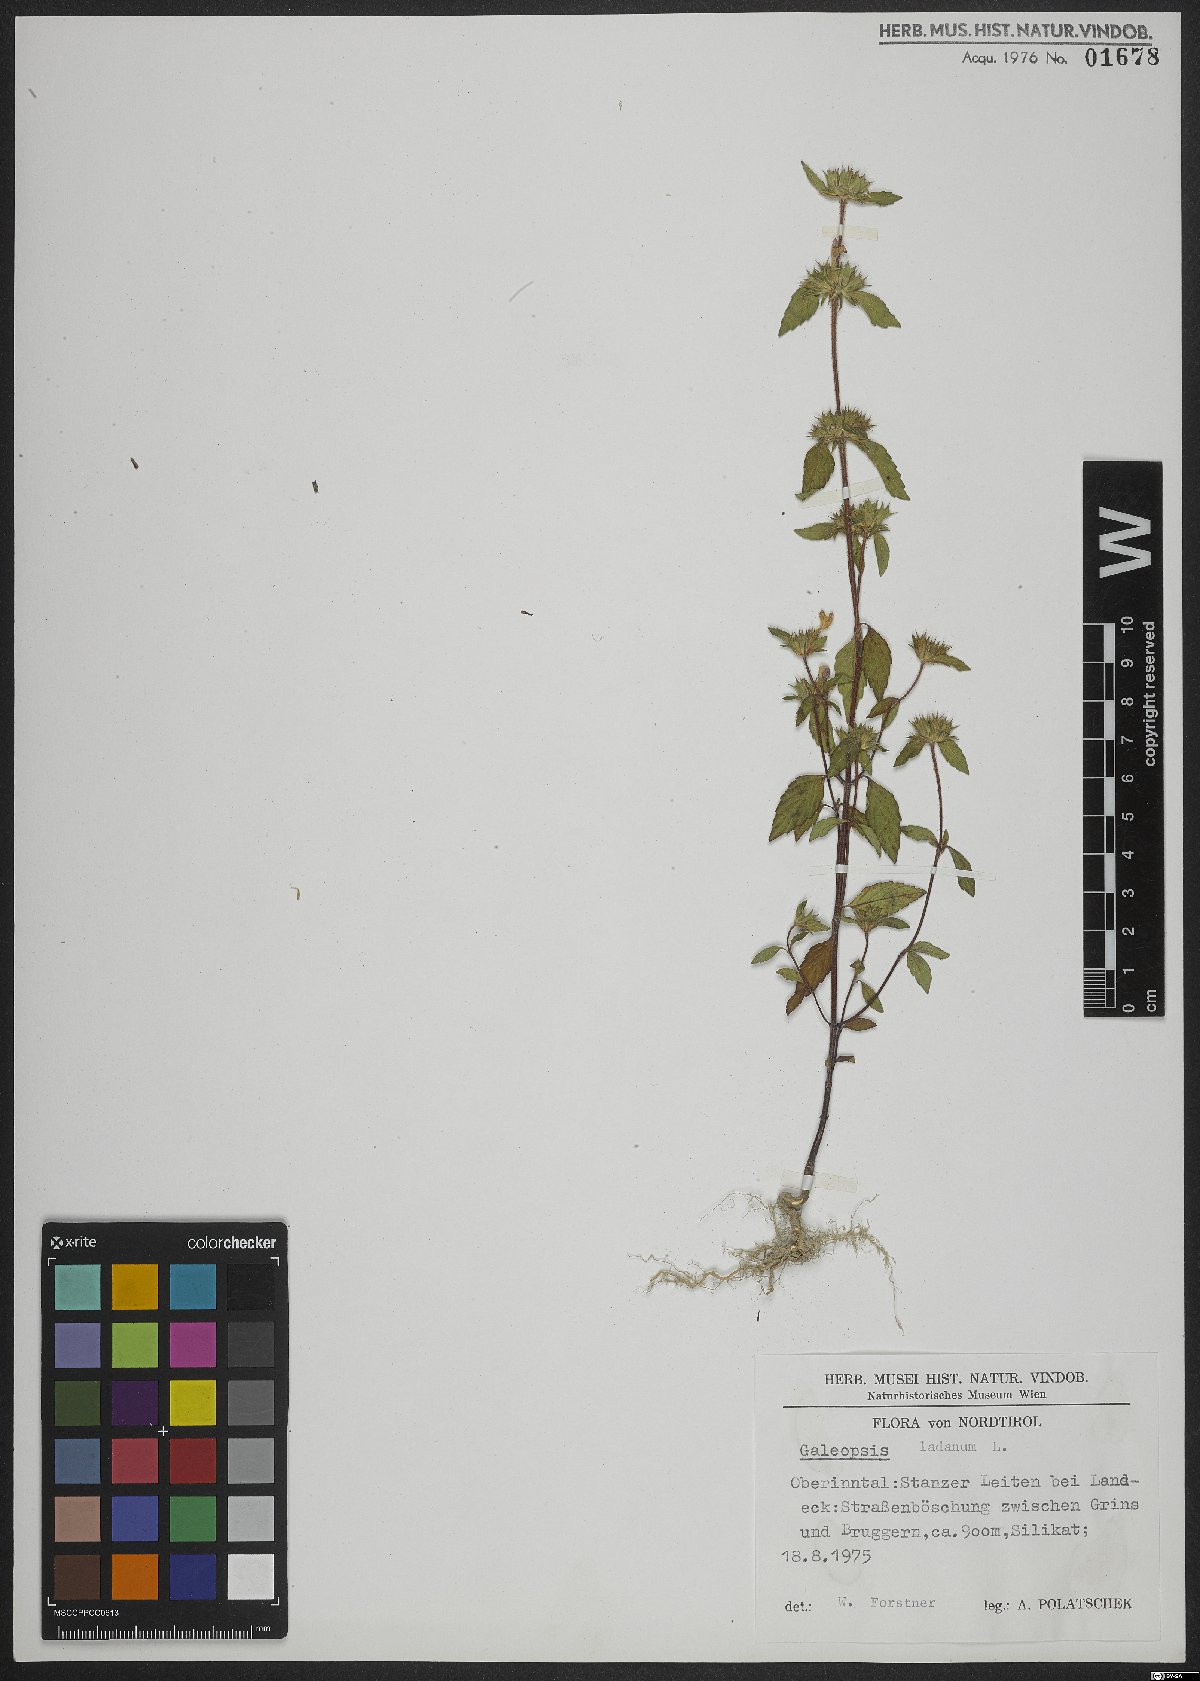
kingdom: Plantae
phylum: Tracheophyta
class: Magnoliopsida
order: Lamiales
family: Lamiaceae
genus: Galeopsis
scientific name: Galeopsis ladanum
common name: Broad-leaved hemp-nettle
